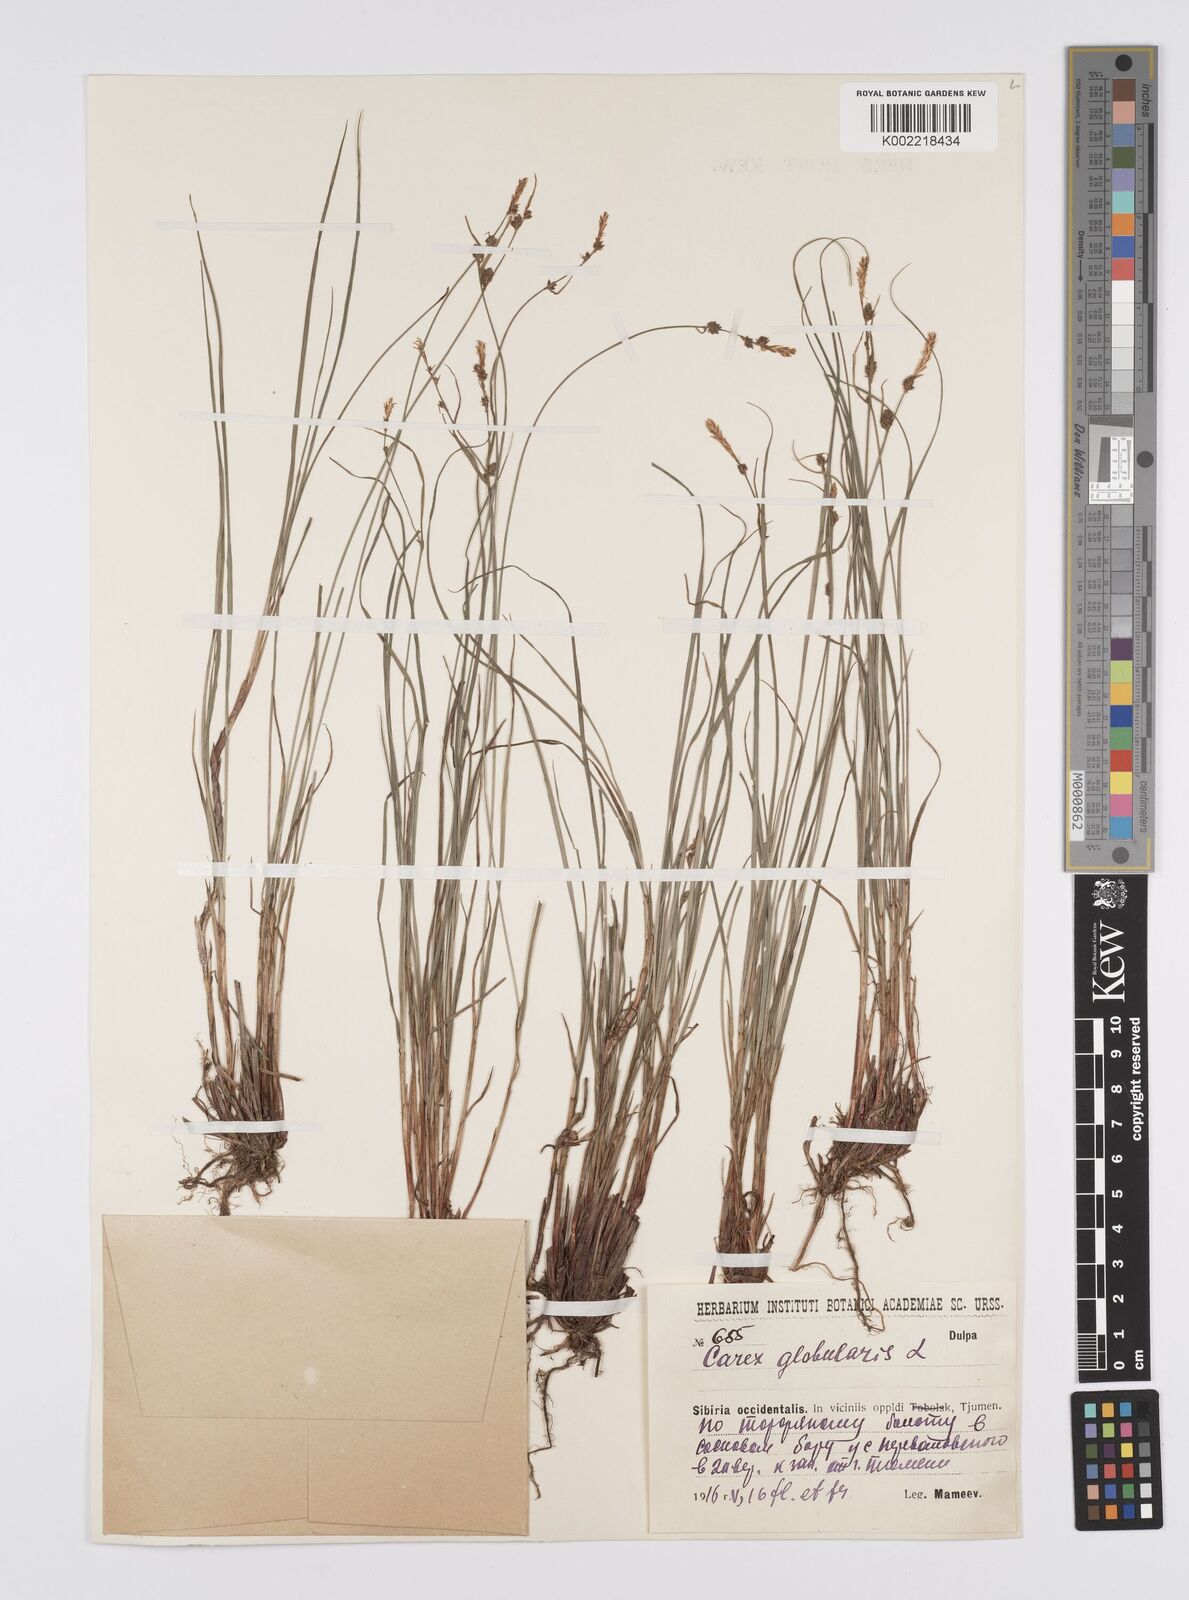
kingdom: Plantae
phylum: Tracheophyta
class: Liliopsida
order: Poales
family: Cyperaceae
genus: Carex
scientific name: Carex globularis
